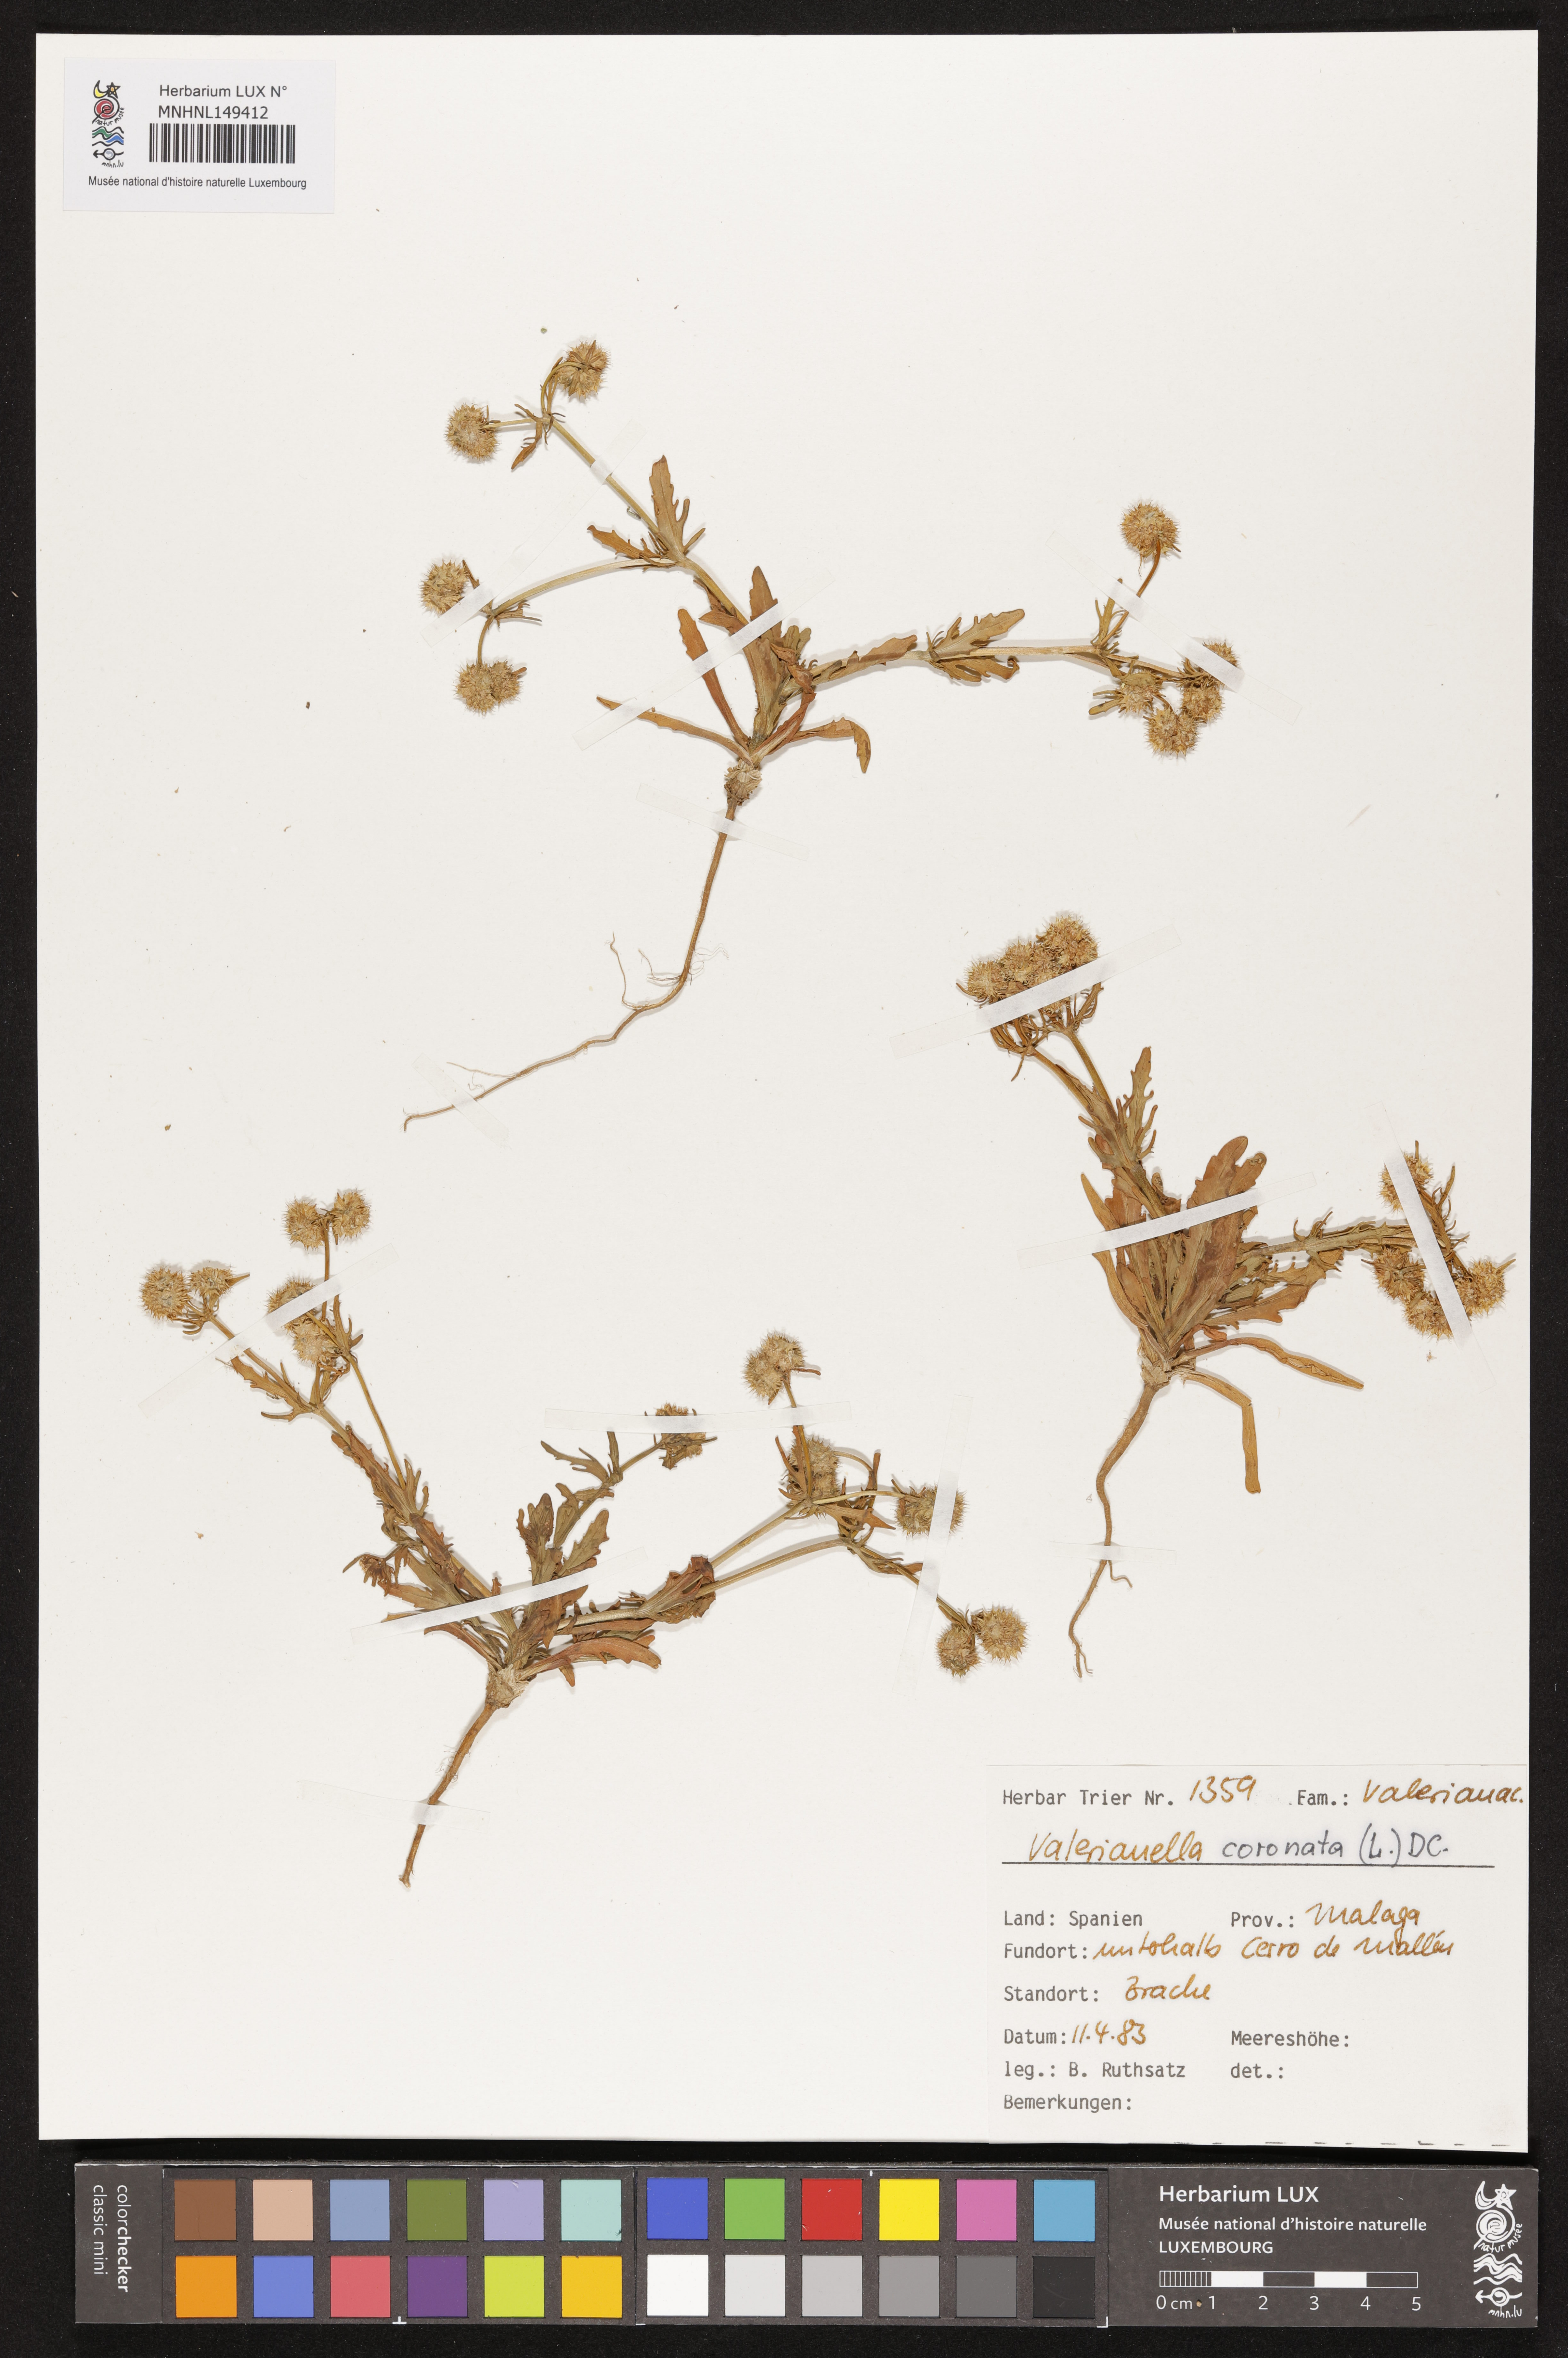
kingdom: Plantae
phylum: Tracheophyta
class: Magnoliopsida
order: Dipsacales
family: Caprifoliaceae
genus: Valerianella
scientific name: Valerianella coronata
